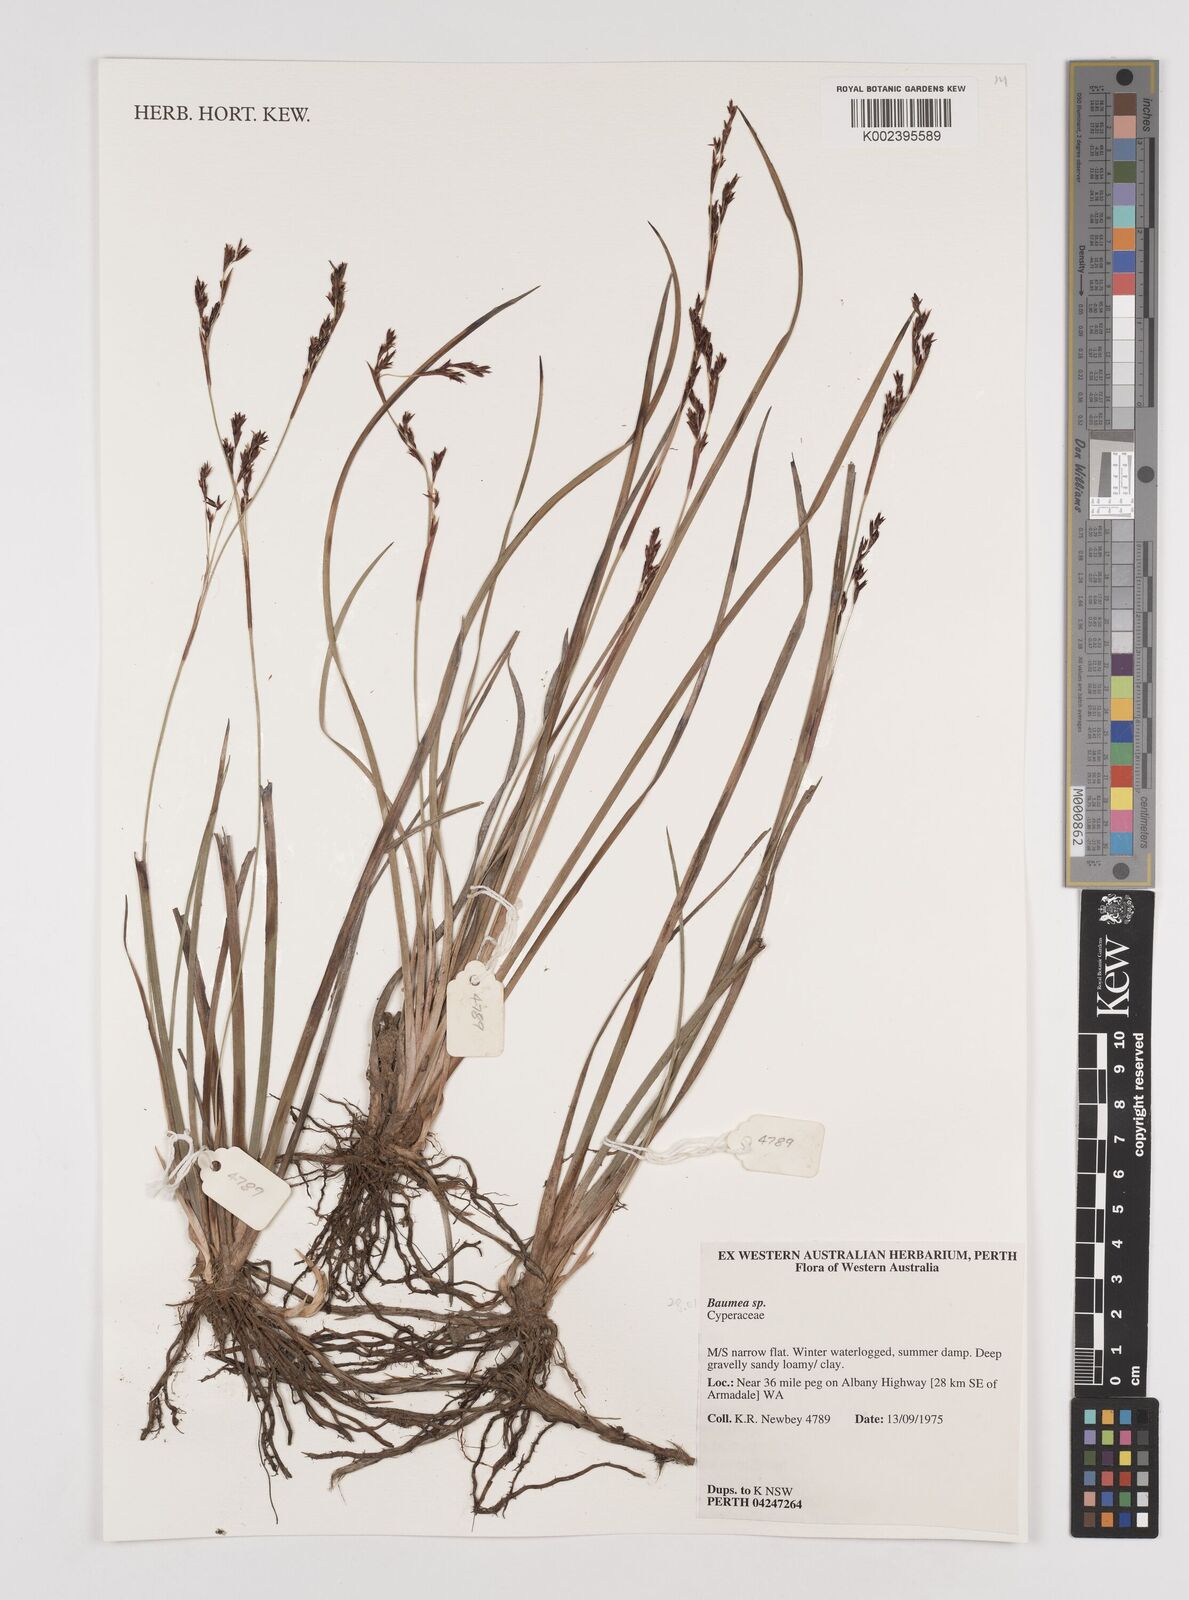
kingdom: Plantae
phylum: Tracheophyta
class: Liliopsida
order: Poales
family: Cyperaceae
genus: Machaerina
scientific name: Machaerina
